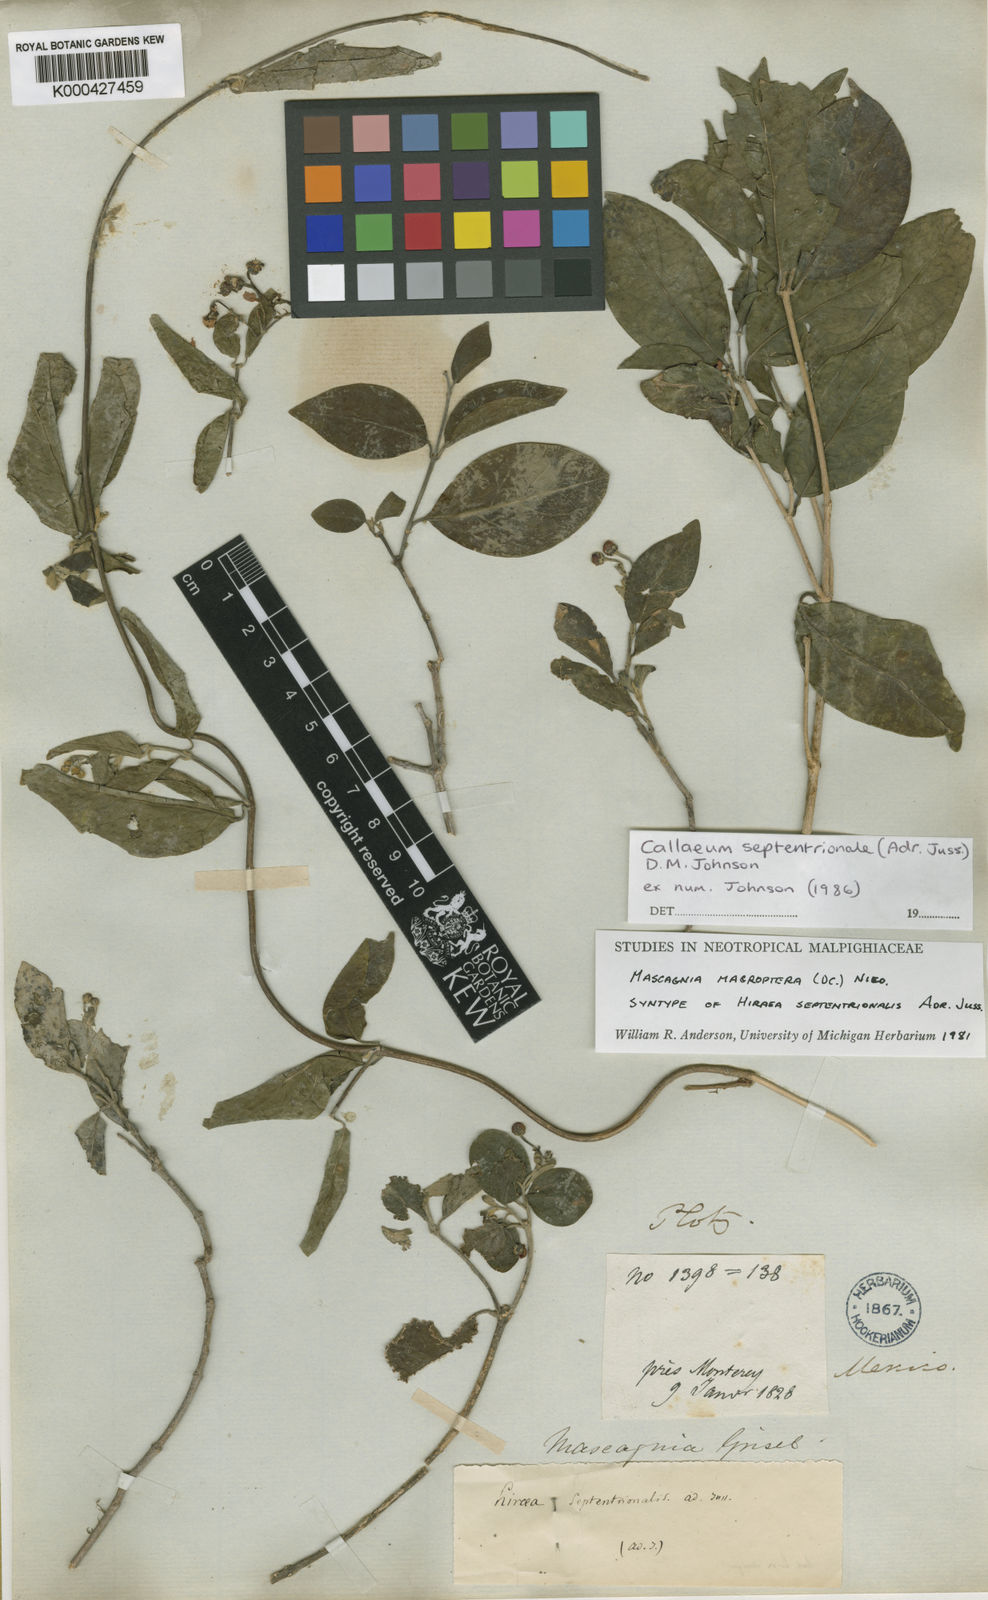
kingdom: Plantae
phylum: Tracheophyta
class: Magnoliopsida
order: Malpighiales
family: Malpighiaceae
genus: Callaeum
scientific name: Callaeum septentrionale
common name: Naranjillo
